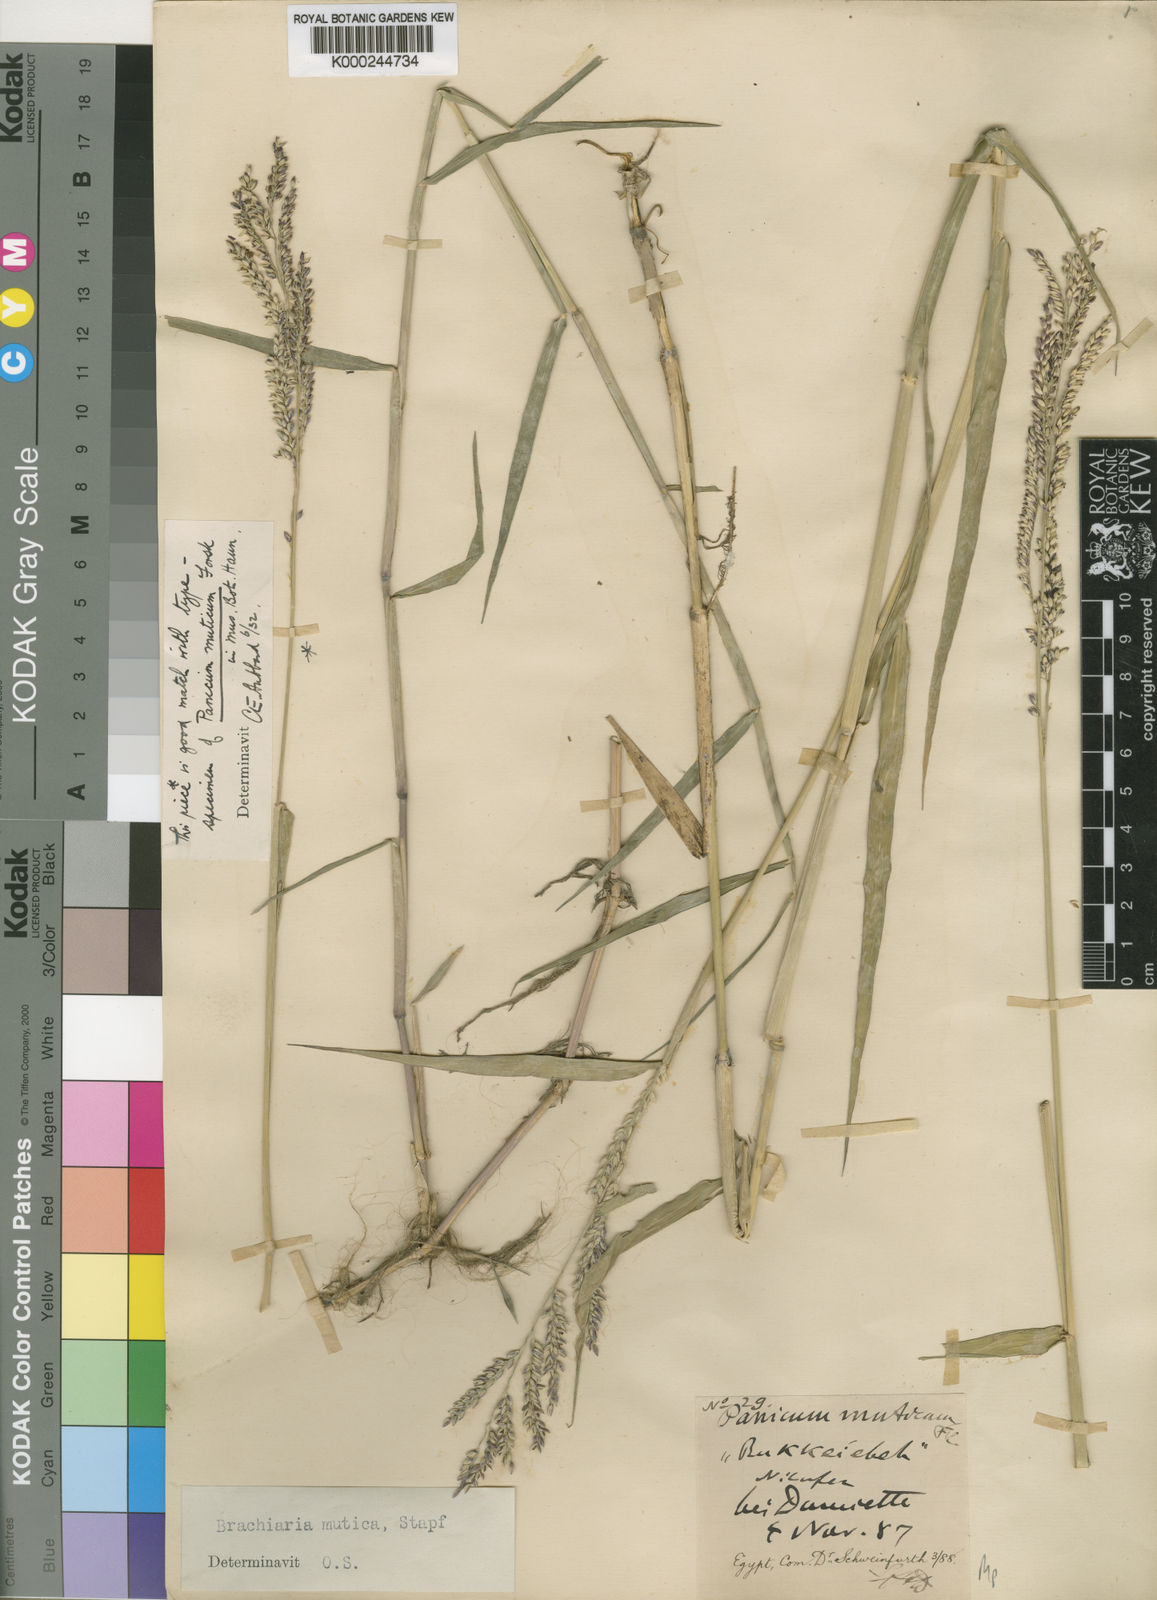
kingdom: Plantae
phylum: Tracheophyta
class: Liliopsida
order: Poales
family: Poaceae
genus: Urochloa
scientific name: Urochloa mutica
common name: Para grass
